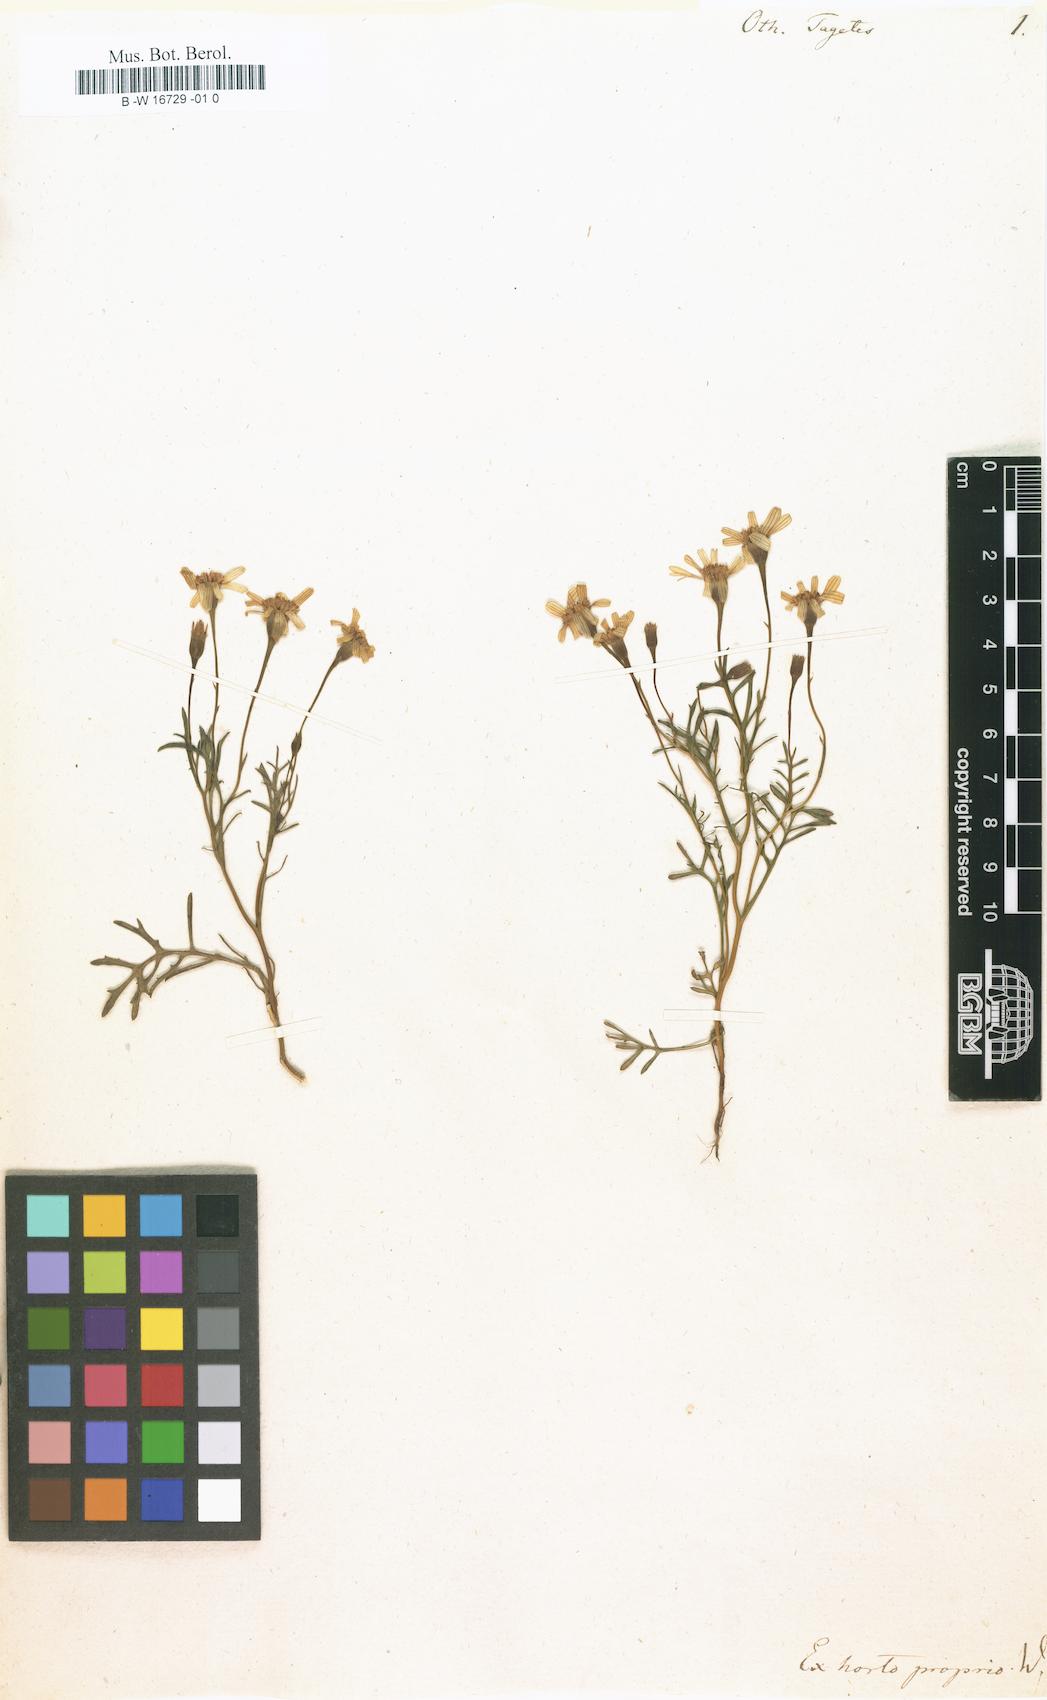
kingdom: Plantae
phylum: Tracheophyta
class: Magnoliopsida
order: Asterales
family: Asteraceae
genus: Steirodiscus
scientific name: Steirodiscus tagetes
